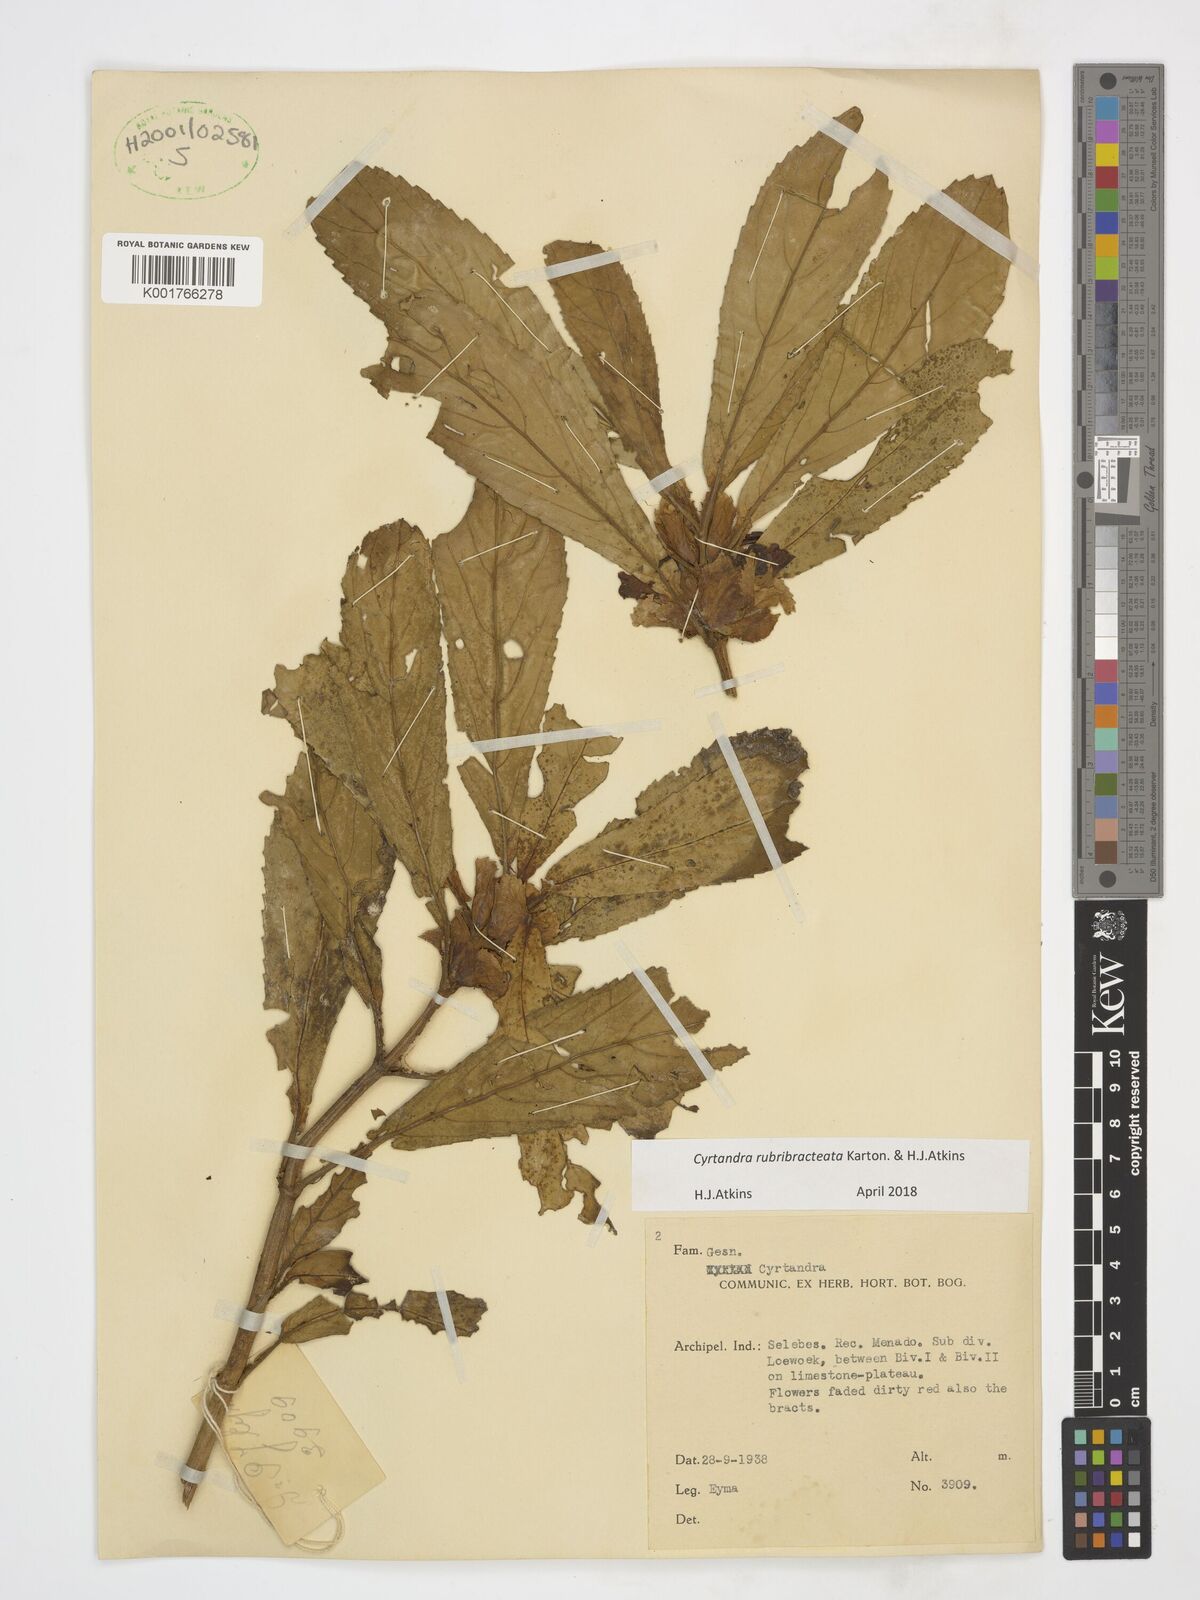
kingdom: Plantae
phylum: Tracheophyta
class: Magnoliopsida
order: Lamiales
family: Gesneriaceae
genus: Cyrtandra
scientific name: Cyrtandra rubribracteata
